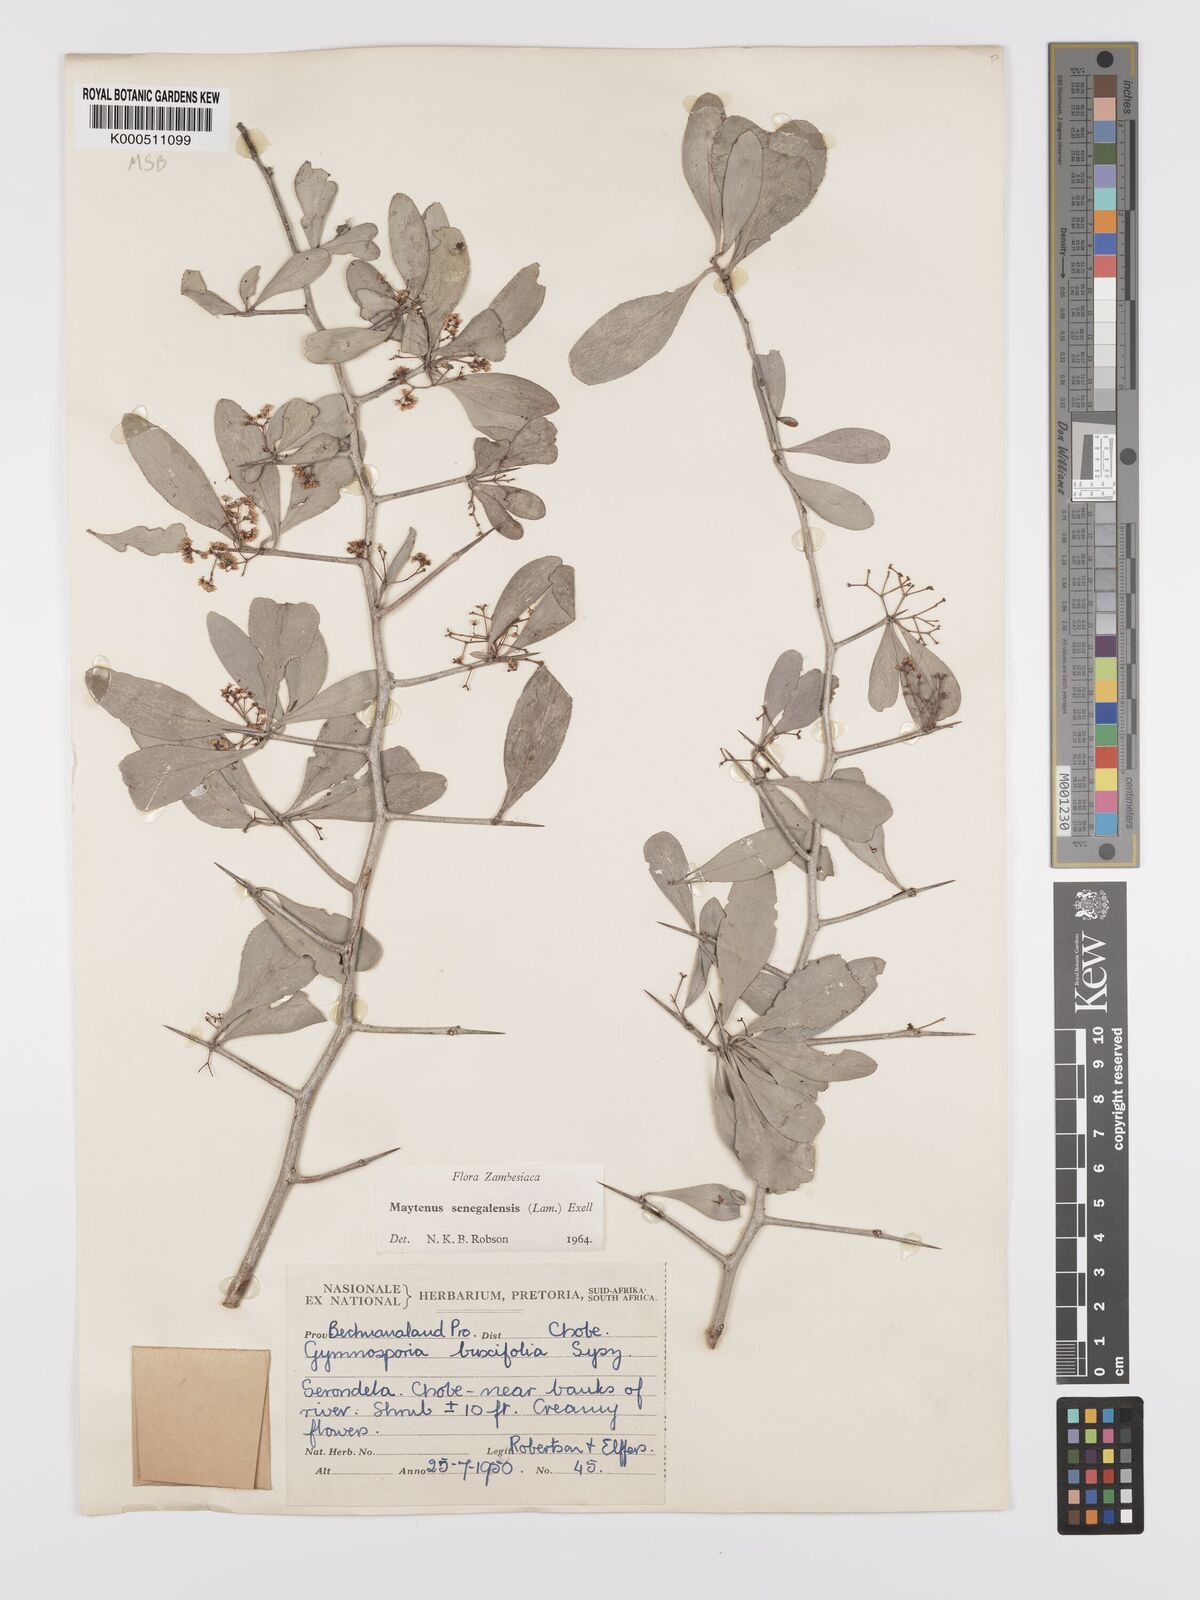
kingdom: Plantae
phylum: Tracheophyta
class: Magnoliopsida
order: Celastrales
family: Celastraceae
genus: Gymnosporia
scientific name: Gymnosporia senegalensis
